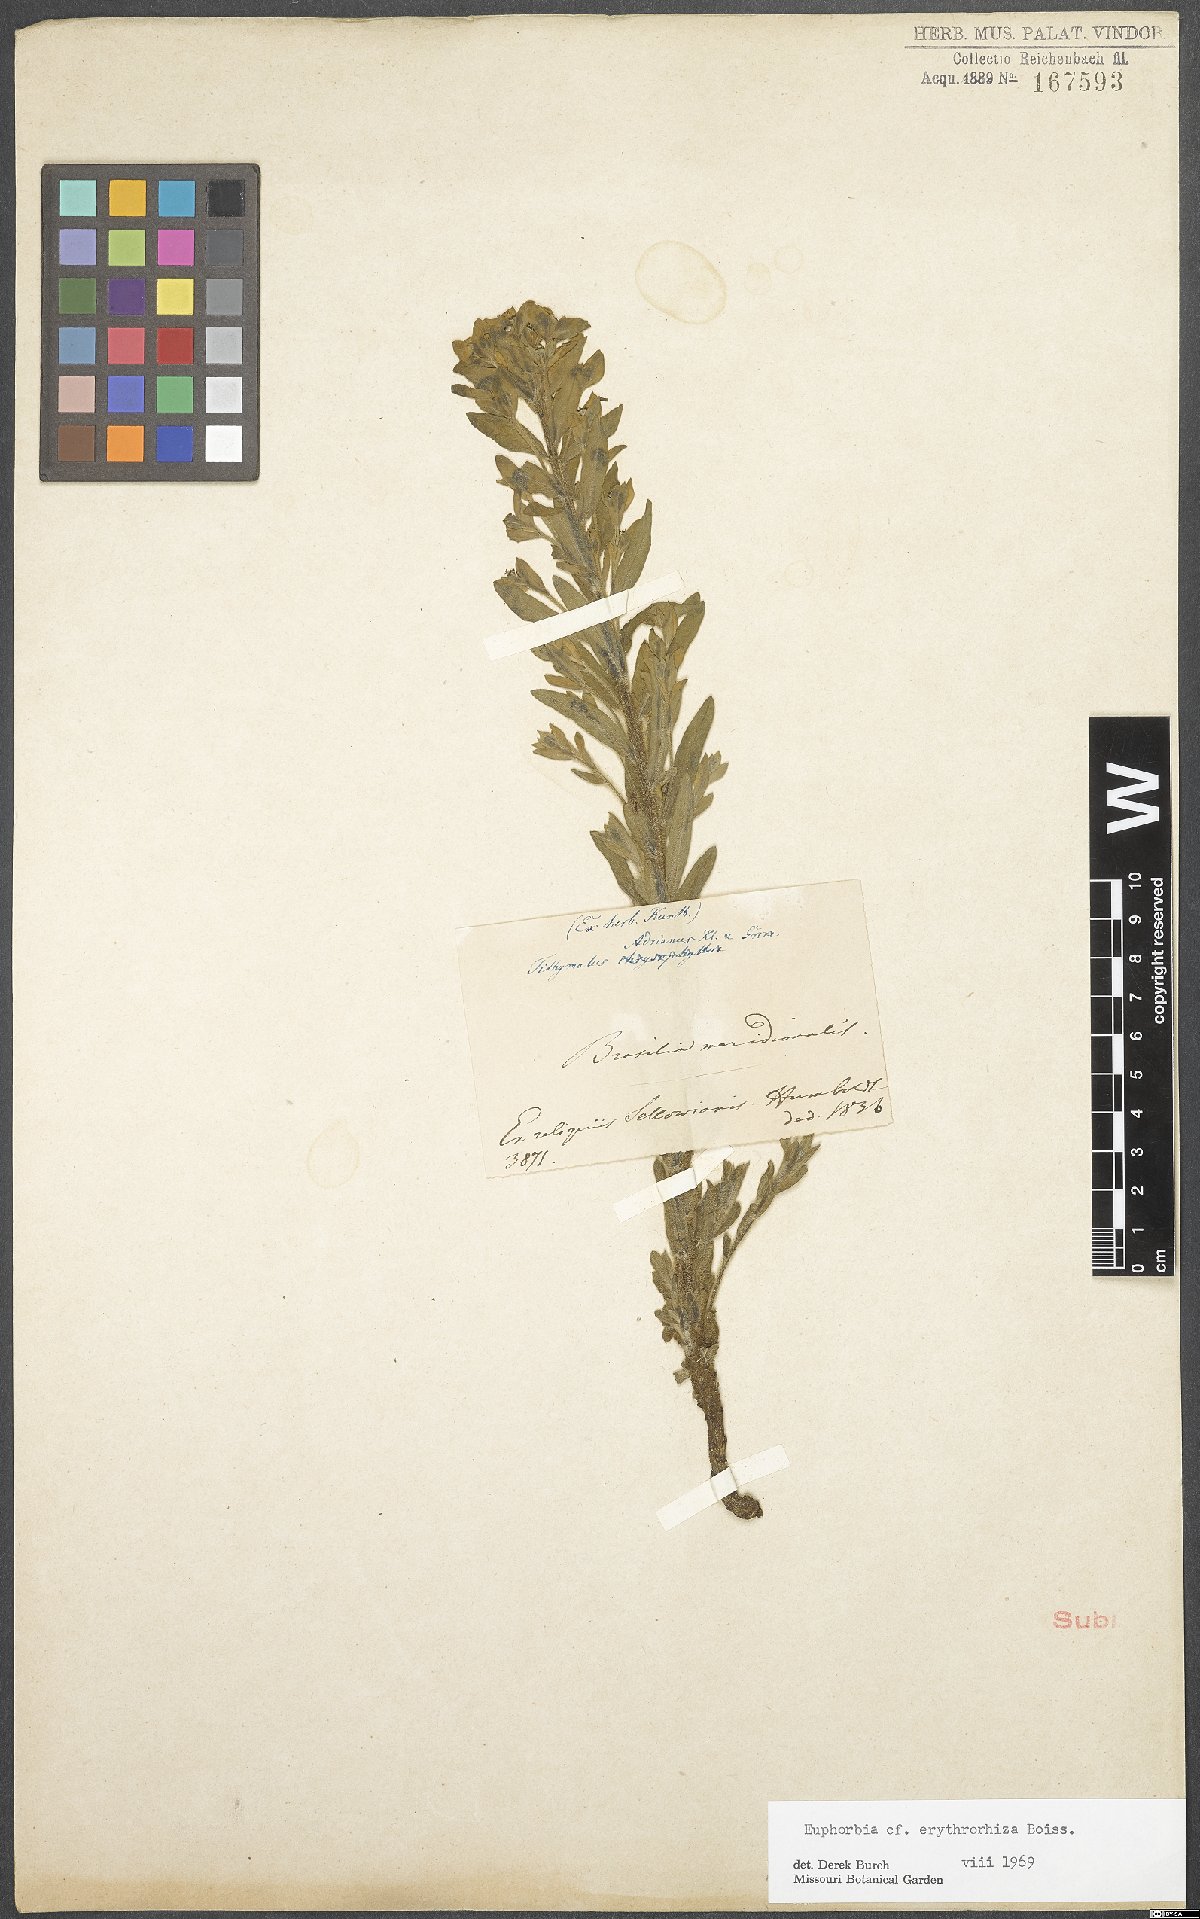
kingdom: Plantae
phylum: Tracheophyta
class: Magnoliopsida
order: Malpighiales
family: Euphorbiaceae
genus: Euphorbia
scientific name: Euphorbia papillosa
